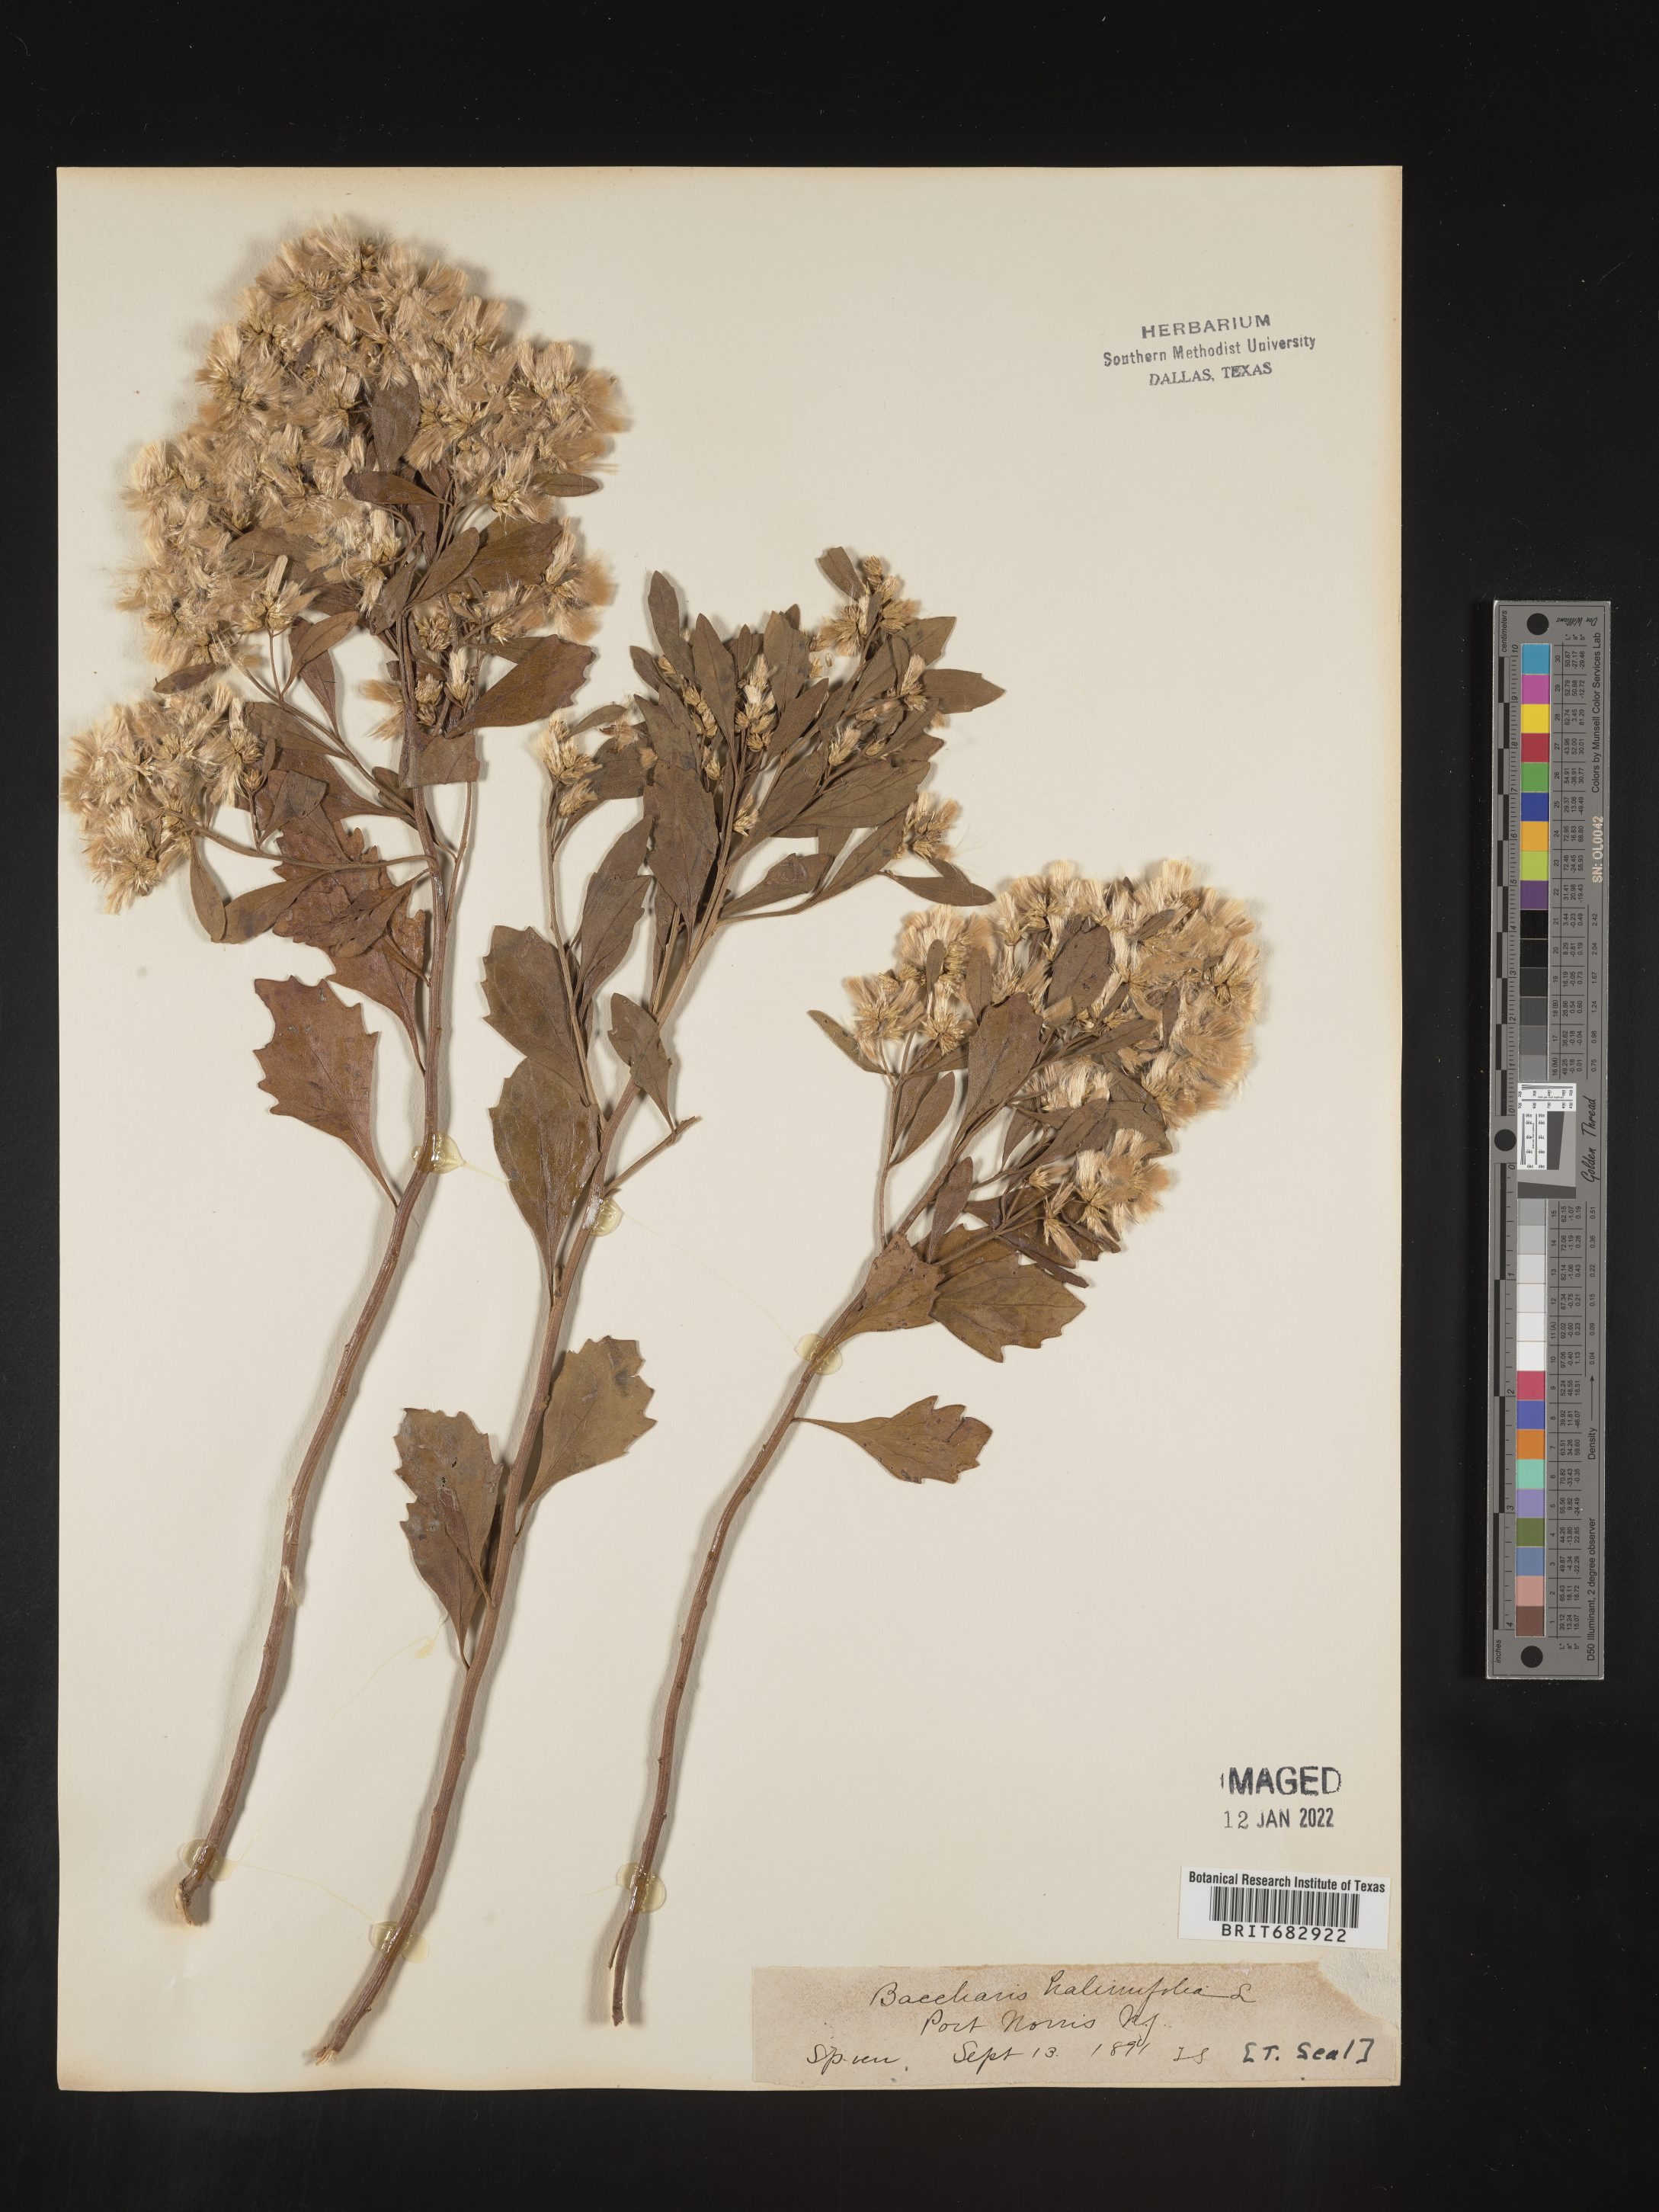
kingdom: Plantae
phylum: Tracheophyta
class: Magnoliopsida
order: Asterales
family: Asteraceae
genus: Nidorella
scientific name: Nidorella ivifolia
